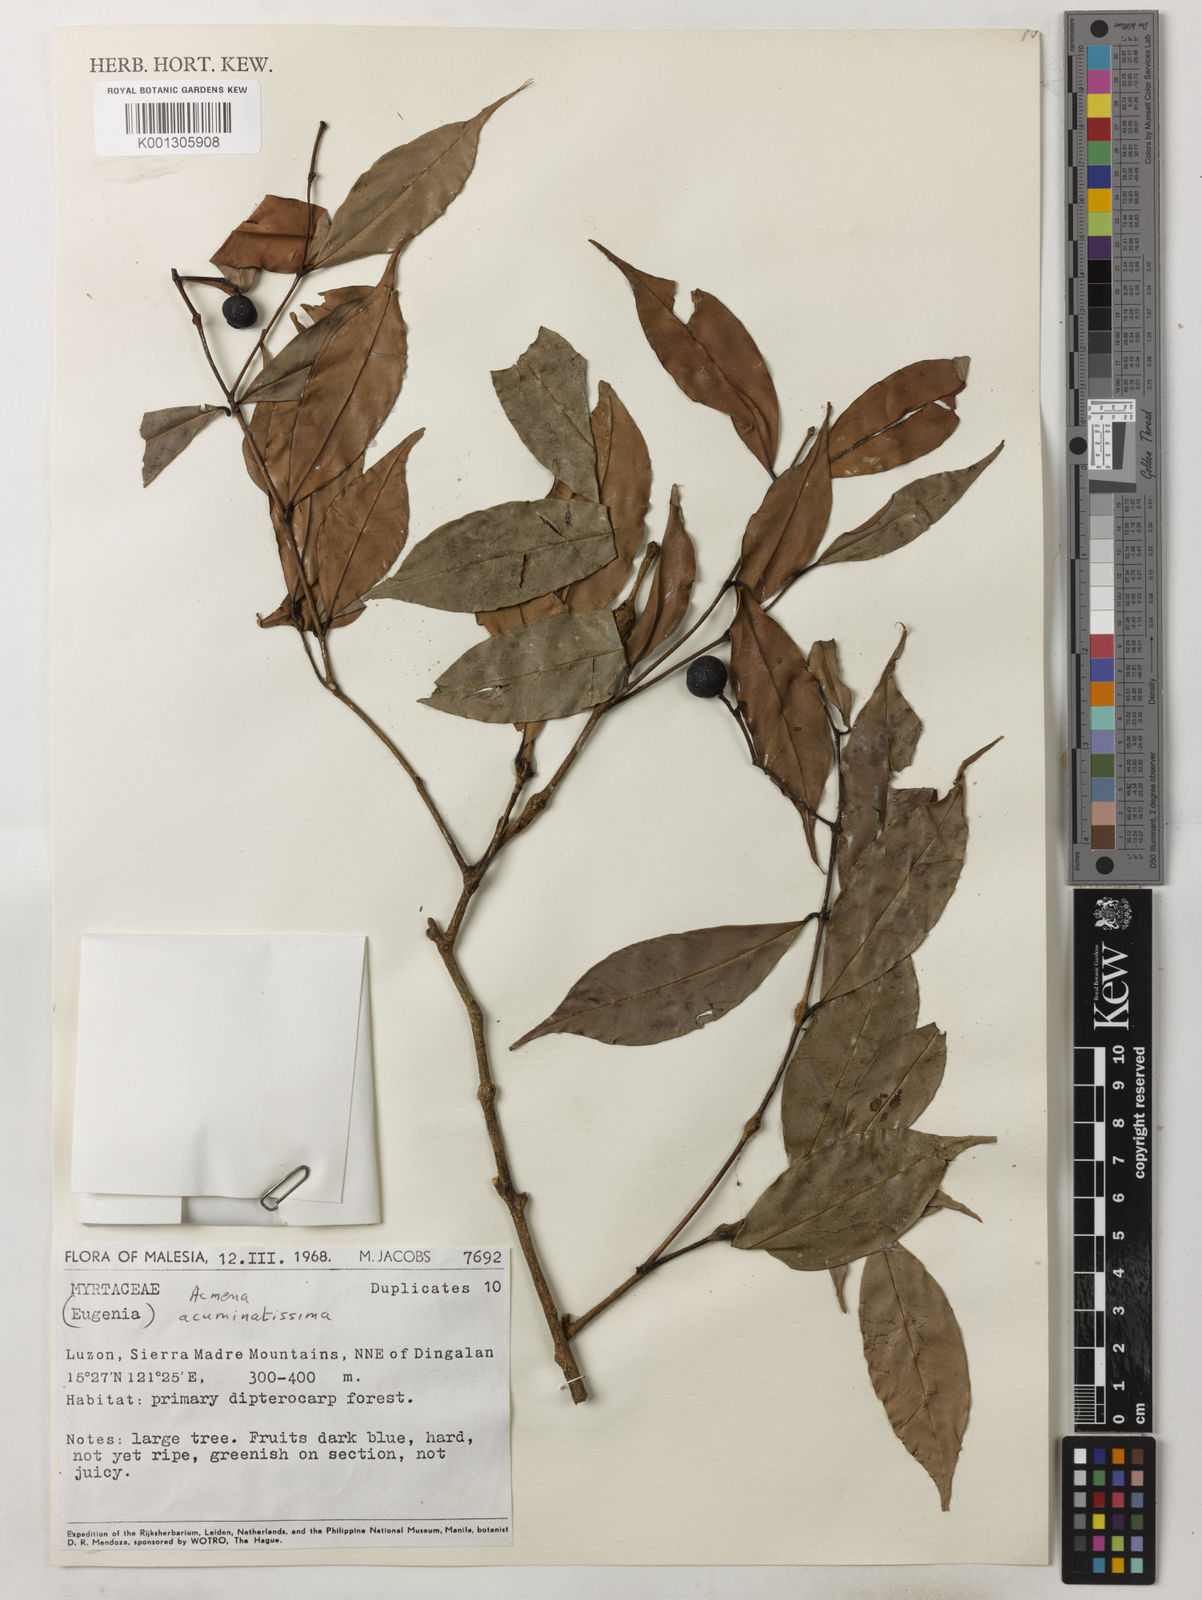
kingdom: Plantae
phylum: Tracheophyta
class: Magnoliopsida
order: Myrtales
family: Myrtaceae
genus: Syzygium
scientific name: Syzygium acuminatissimum
